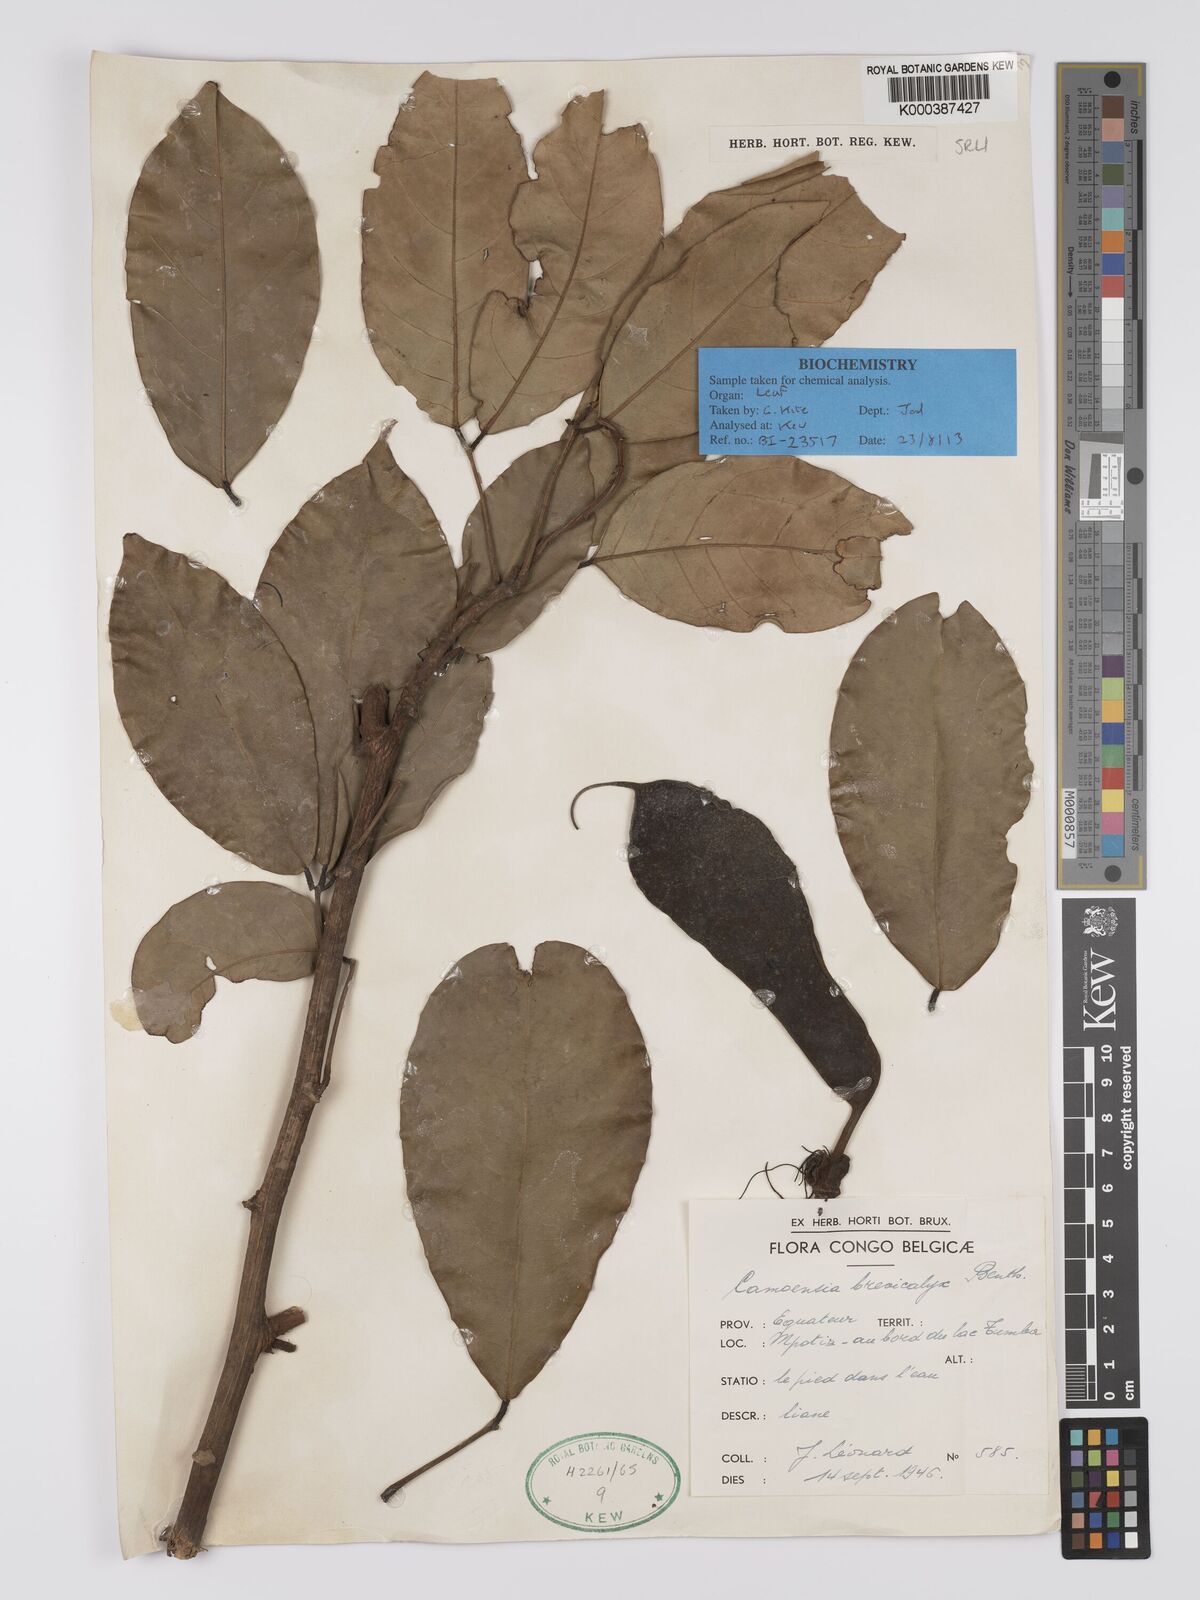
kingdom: Plantae
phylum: Tracheophyta
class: Magnoliopsida
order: Fabales
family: Fabaceae
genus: Camoensia
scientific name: Camoensia brevicalyx
